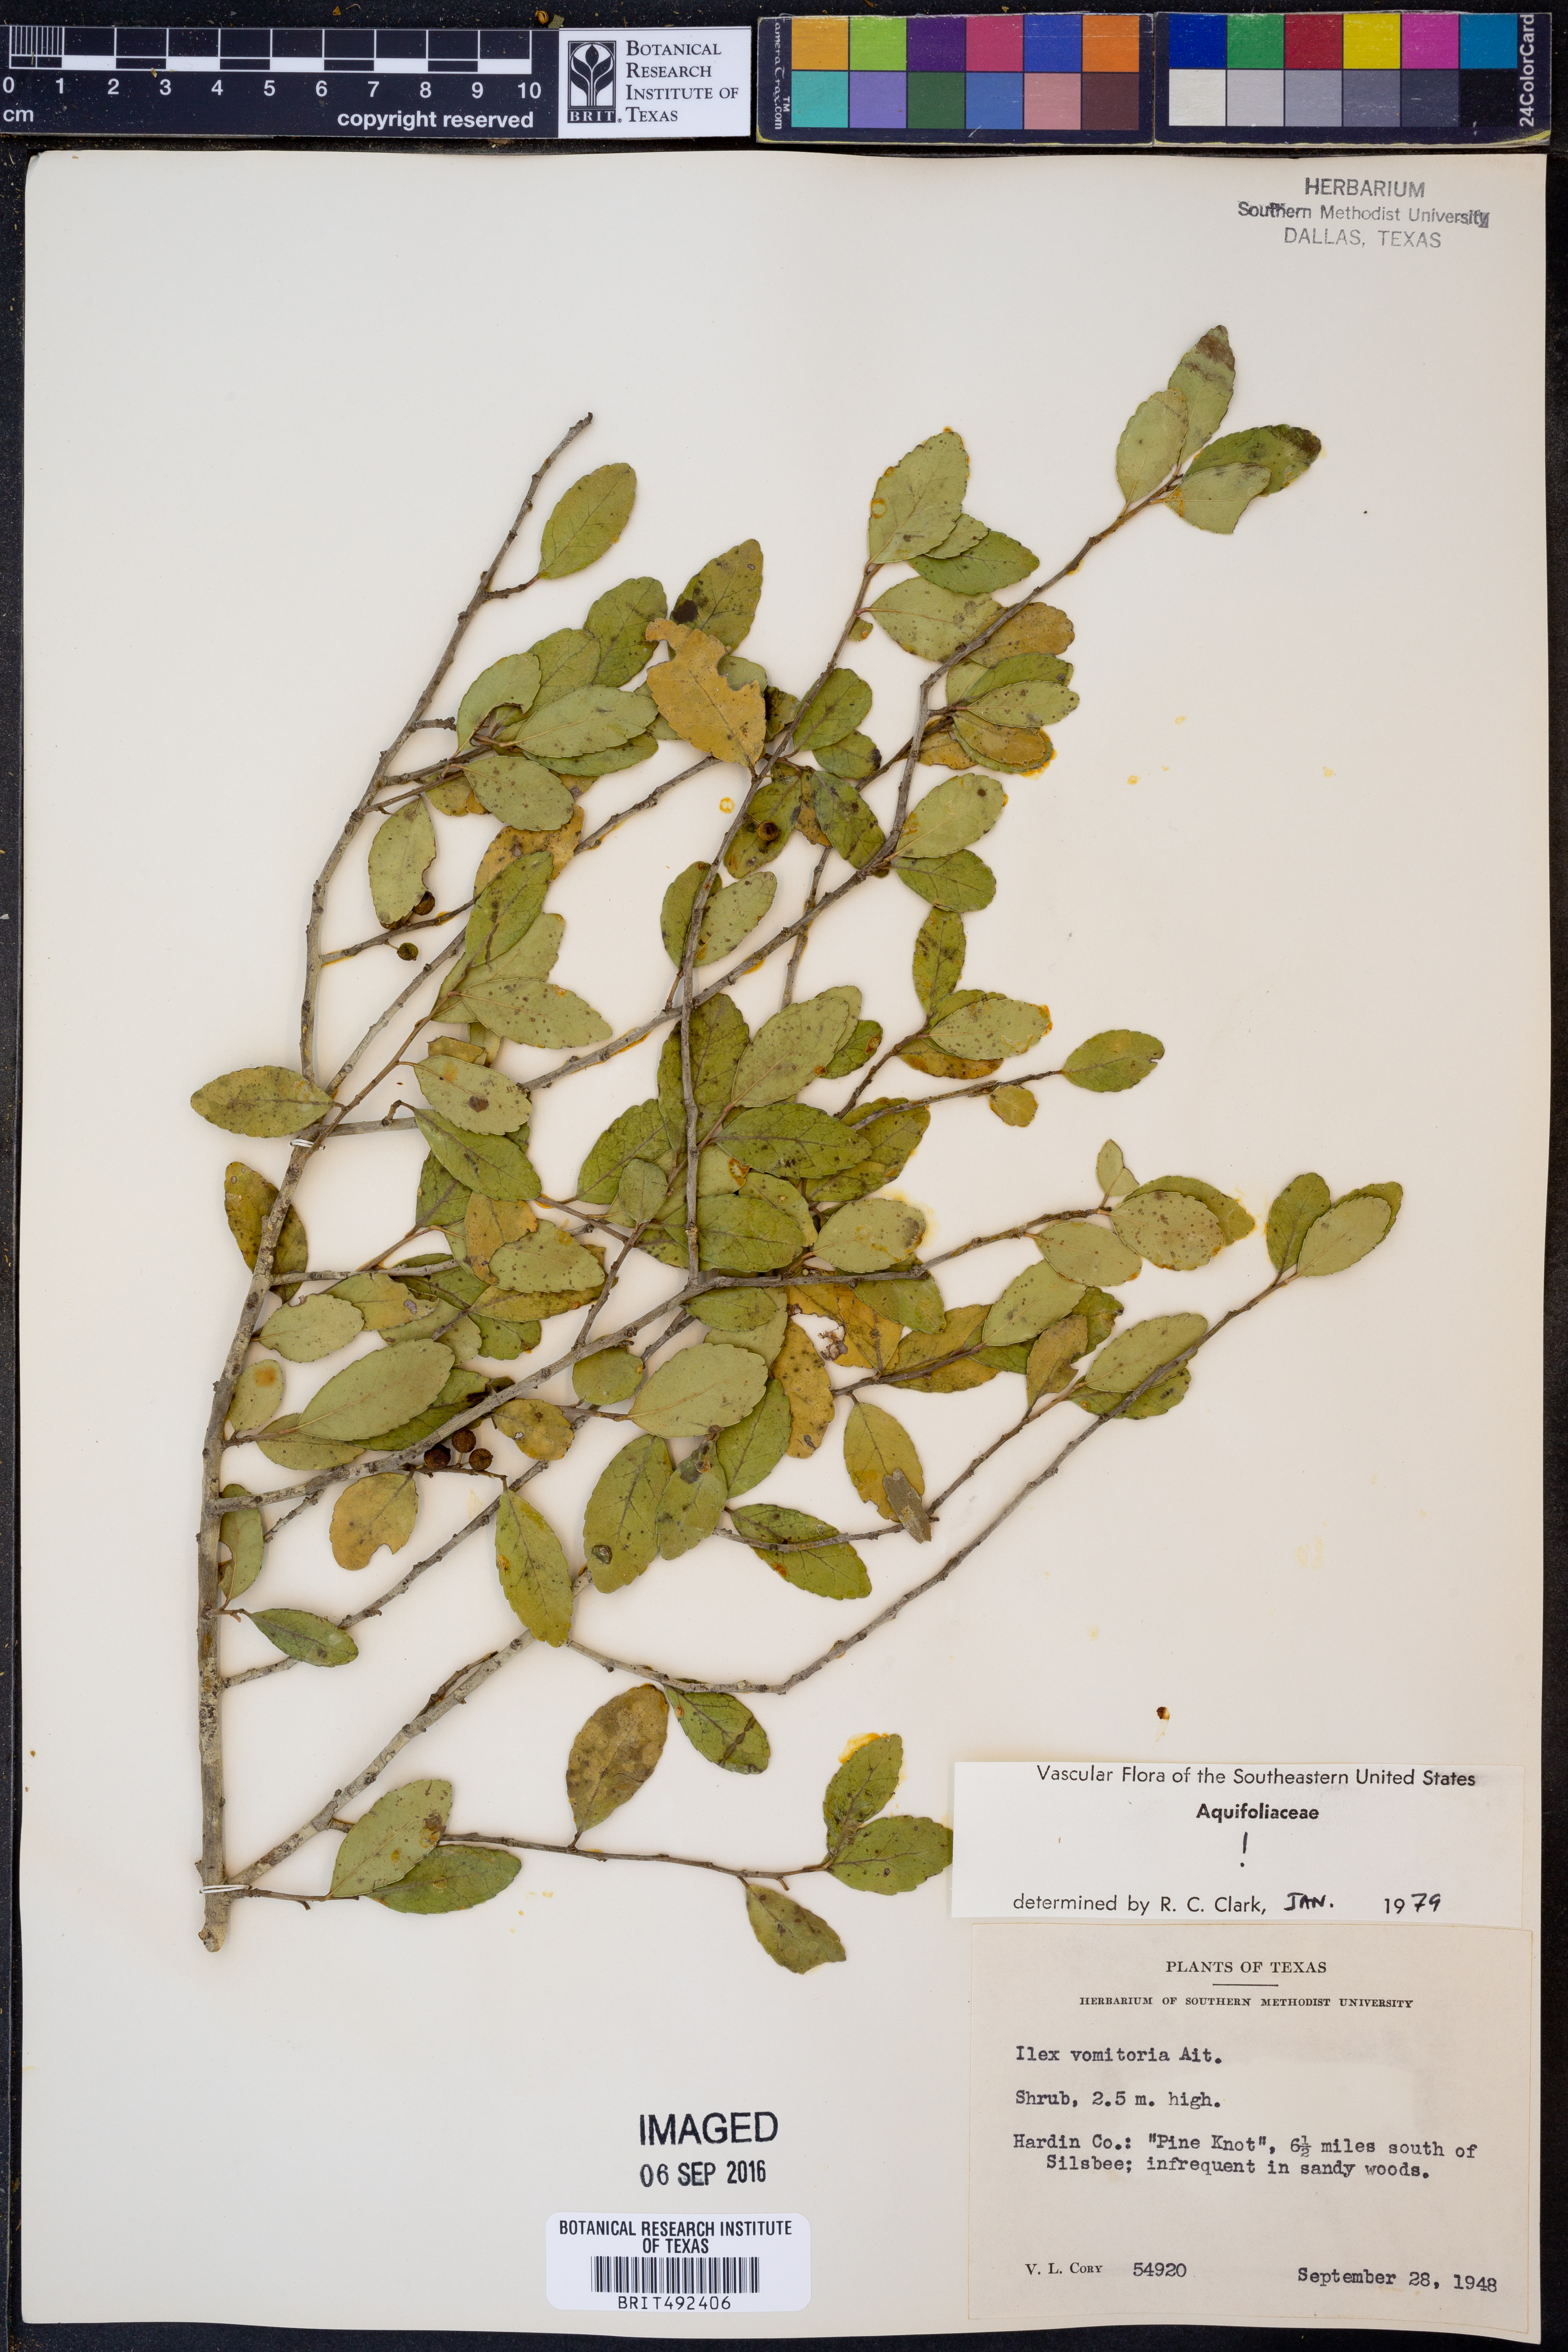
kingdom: Plantae
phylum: Tracheophyta
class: Magnoliopsida
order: Aquifoliales
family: Aquifoliaceae
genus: Ilex
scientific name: Ilex vomitoria
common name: Yaupon holly
